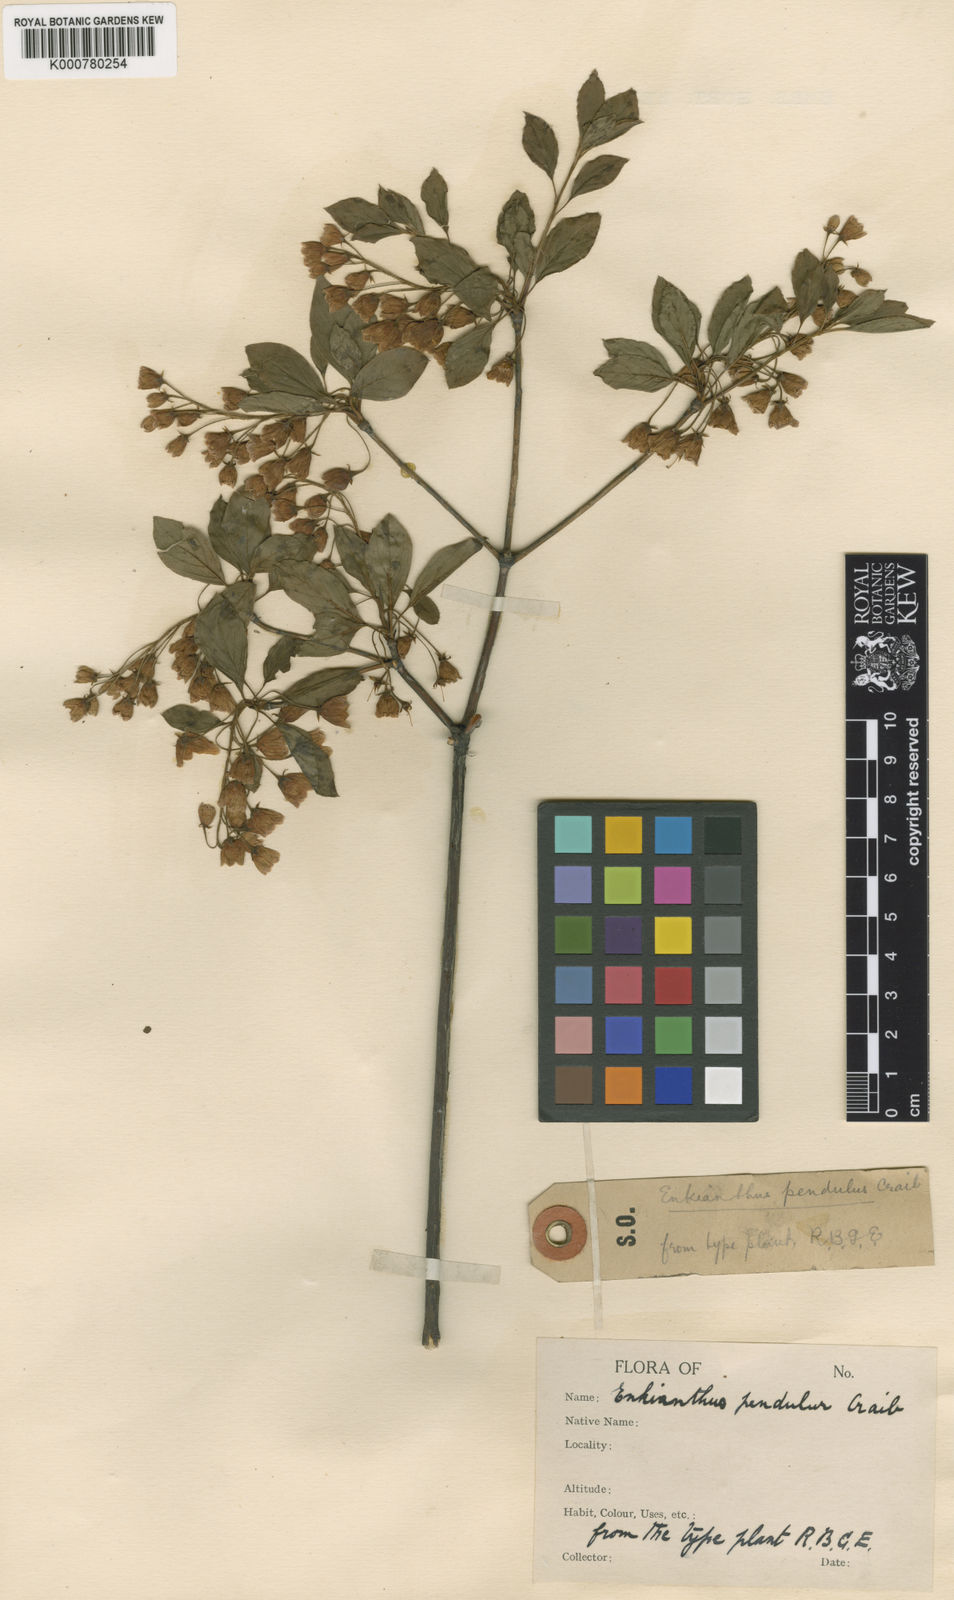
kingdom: Plantae
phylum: Tracheophyta
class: Magnoliopsida
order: Ericales
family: Ericaceae
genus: Enkianthus
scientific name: Enkianthus campanulatus
